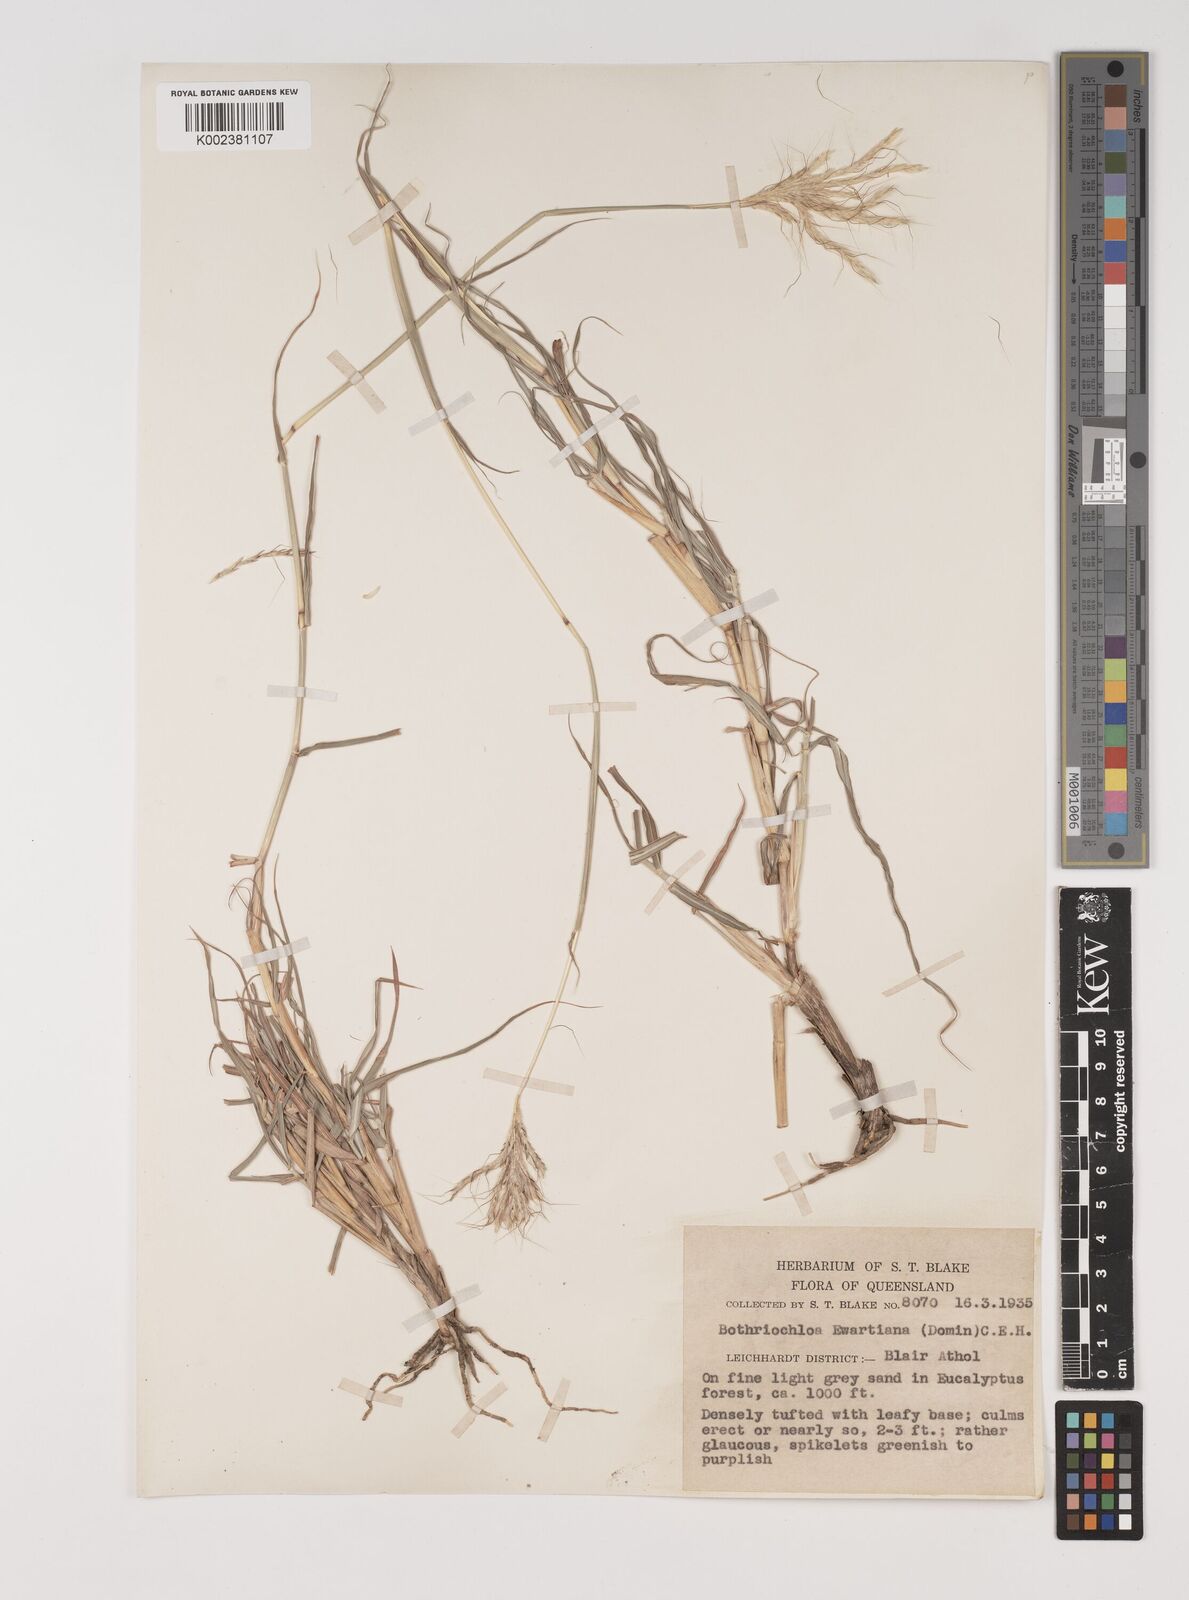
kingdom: Plantae
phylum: Tracheophyta
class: Liliopsida
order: Poales
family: Poaceae
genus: Bothriochloa
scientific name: Bothriochloa ewartiana
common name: Desert-bluegrass
